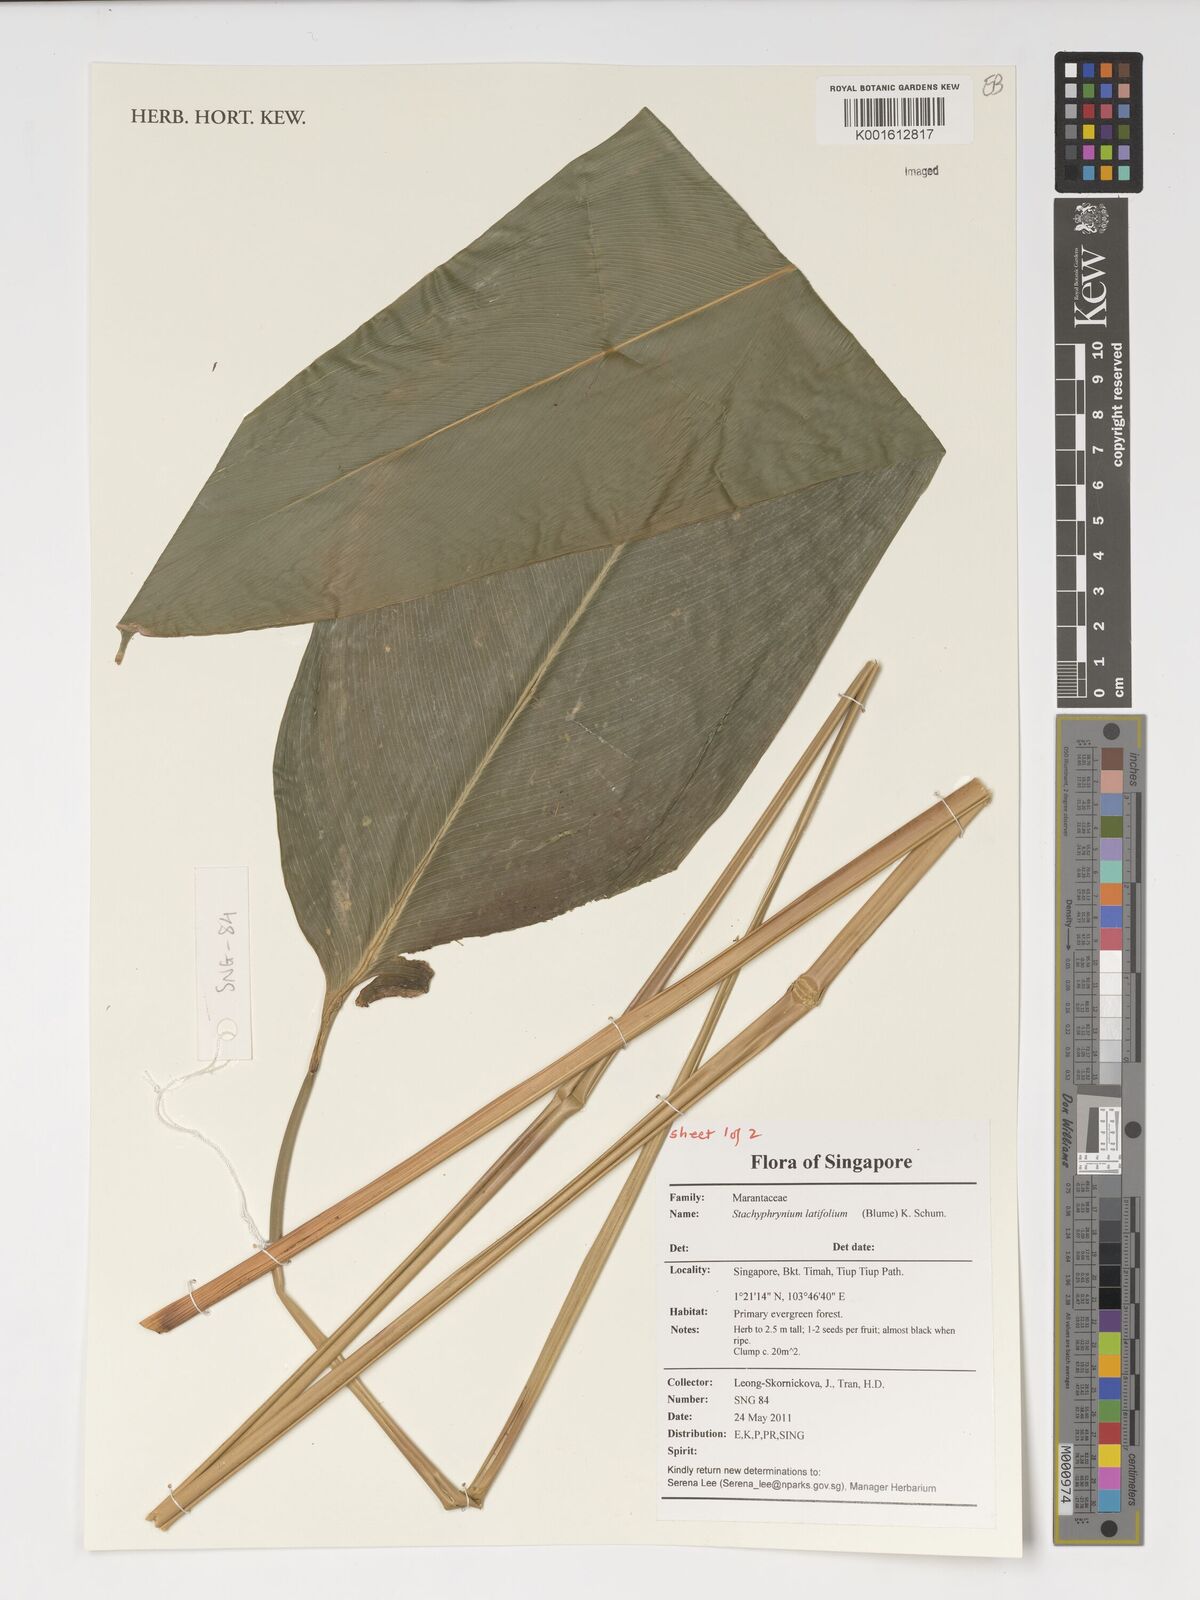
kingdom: Plantae
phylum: Tracheophyta
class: Liliopsida
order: Zingiberales
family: Marantaceae
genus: Stachyphrynium
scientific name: Stachyphrynium latifolium
